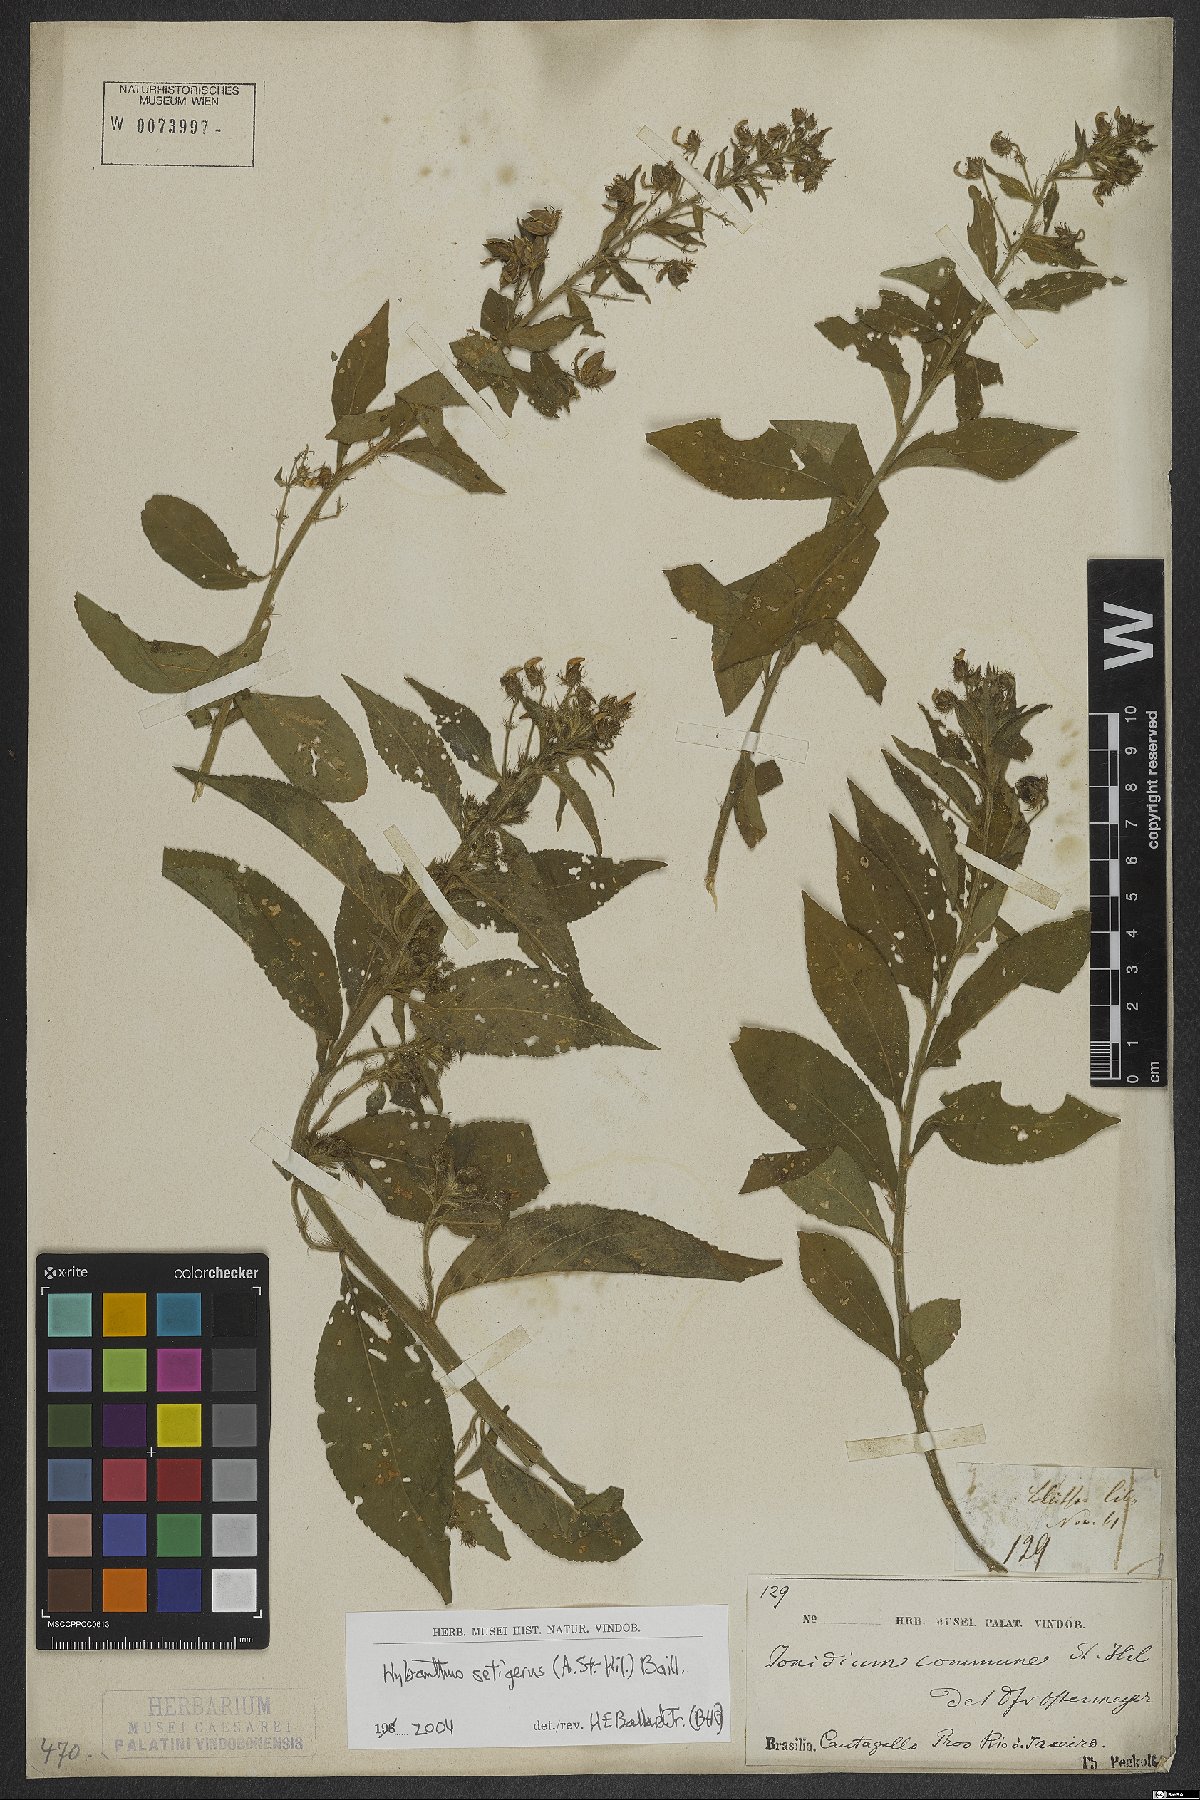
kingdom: Plantae
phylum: Tracheophyta
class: Magnoliopsida
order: Malpighiales
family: Violaceae
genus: Pombalia
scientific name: Pombalia setigera
